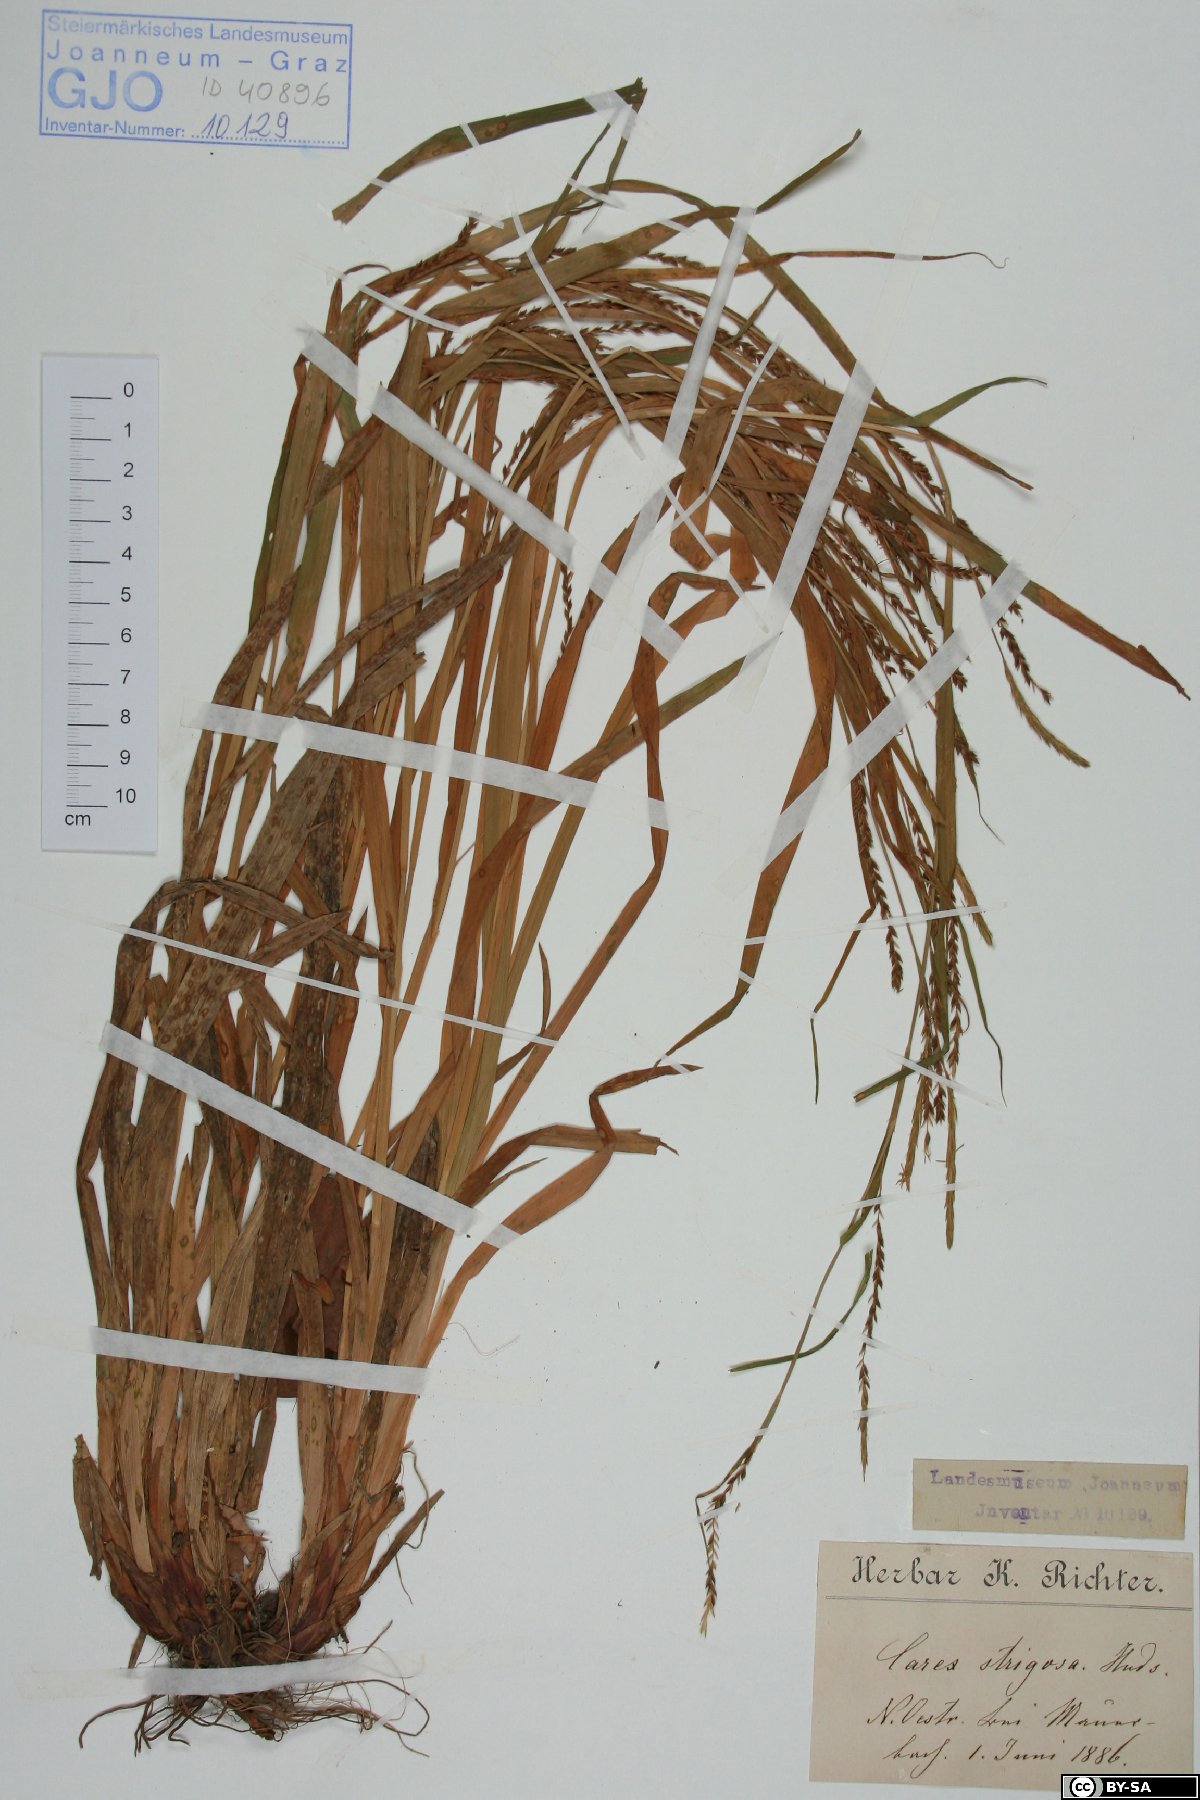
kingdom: Plantae
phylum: Tracheophyta
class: Liliopsida
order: Poales
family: Cyperaceae
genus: Carex
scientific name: Carex strigosa
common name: Thin-spiked wood-sedge
